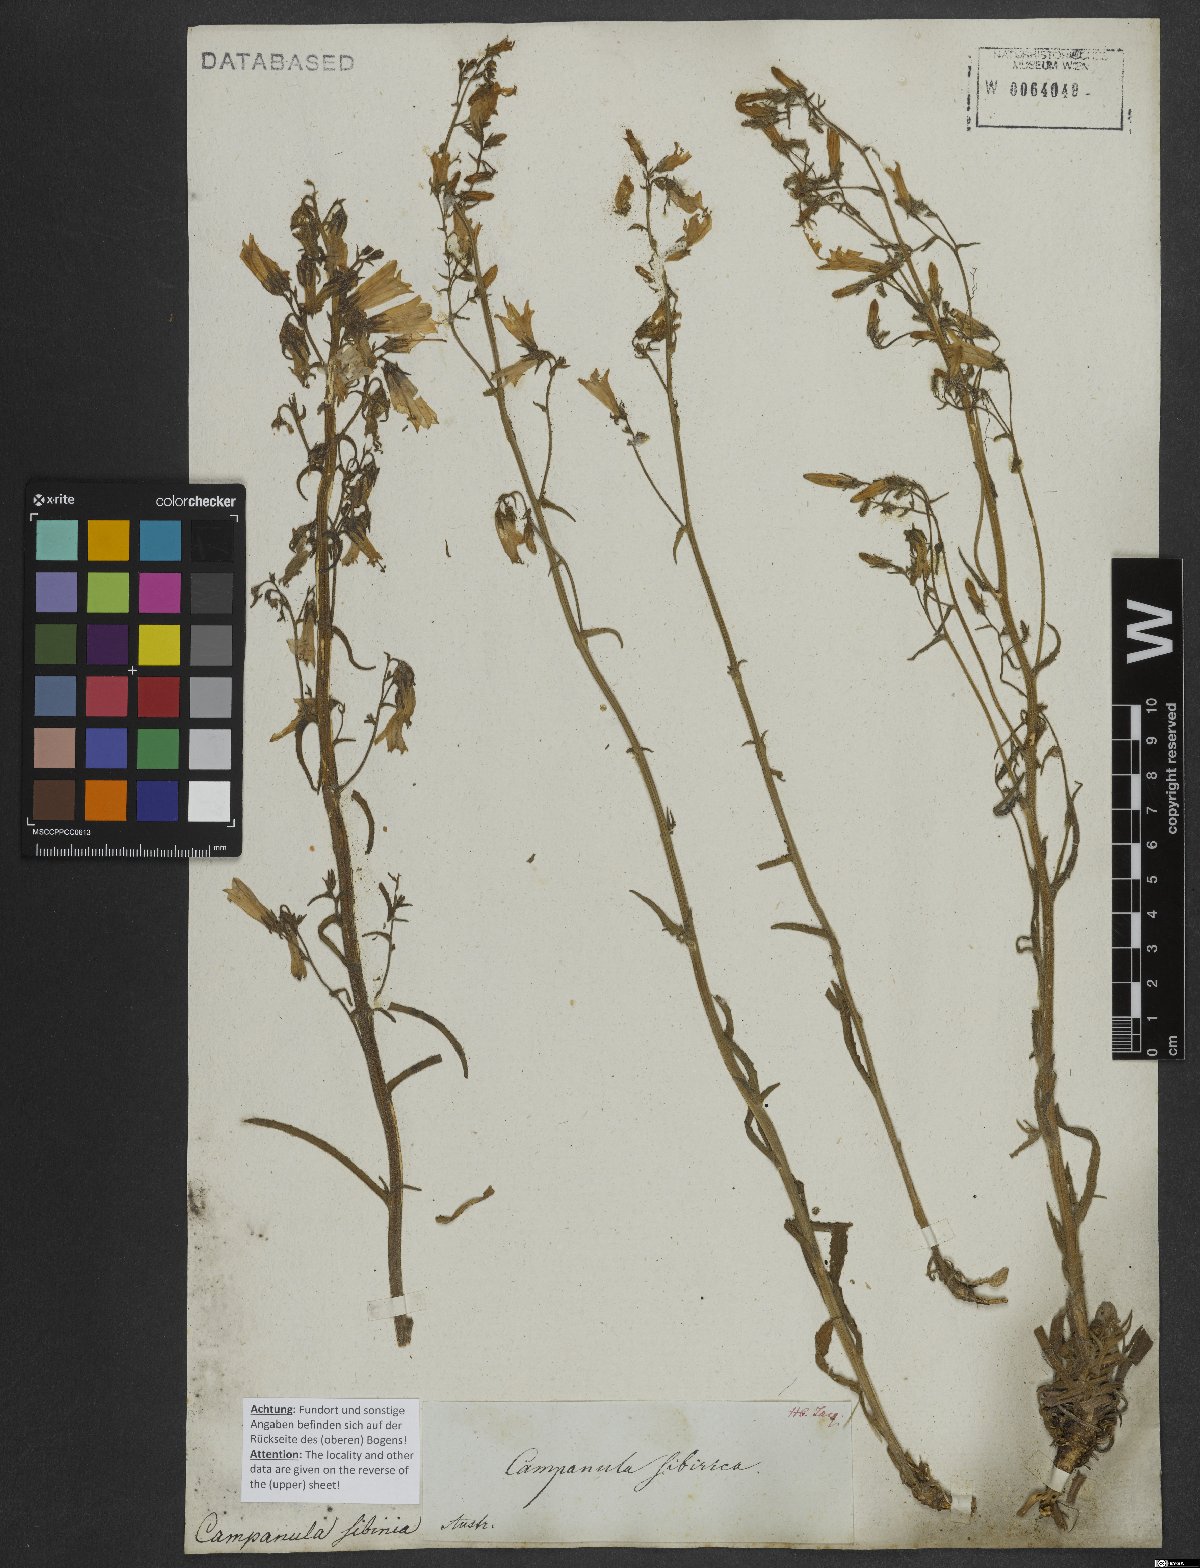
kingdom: Plantae
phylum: Tracheophyta
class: Magnoliopsida
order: Asterales
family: Campanulaceae
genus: Campanula
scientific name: Campanula sibirica
